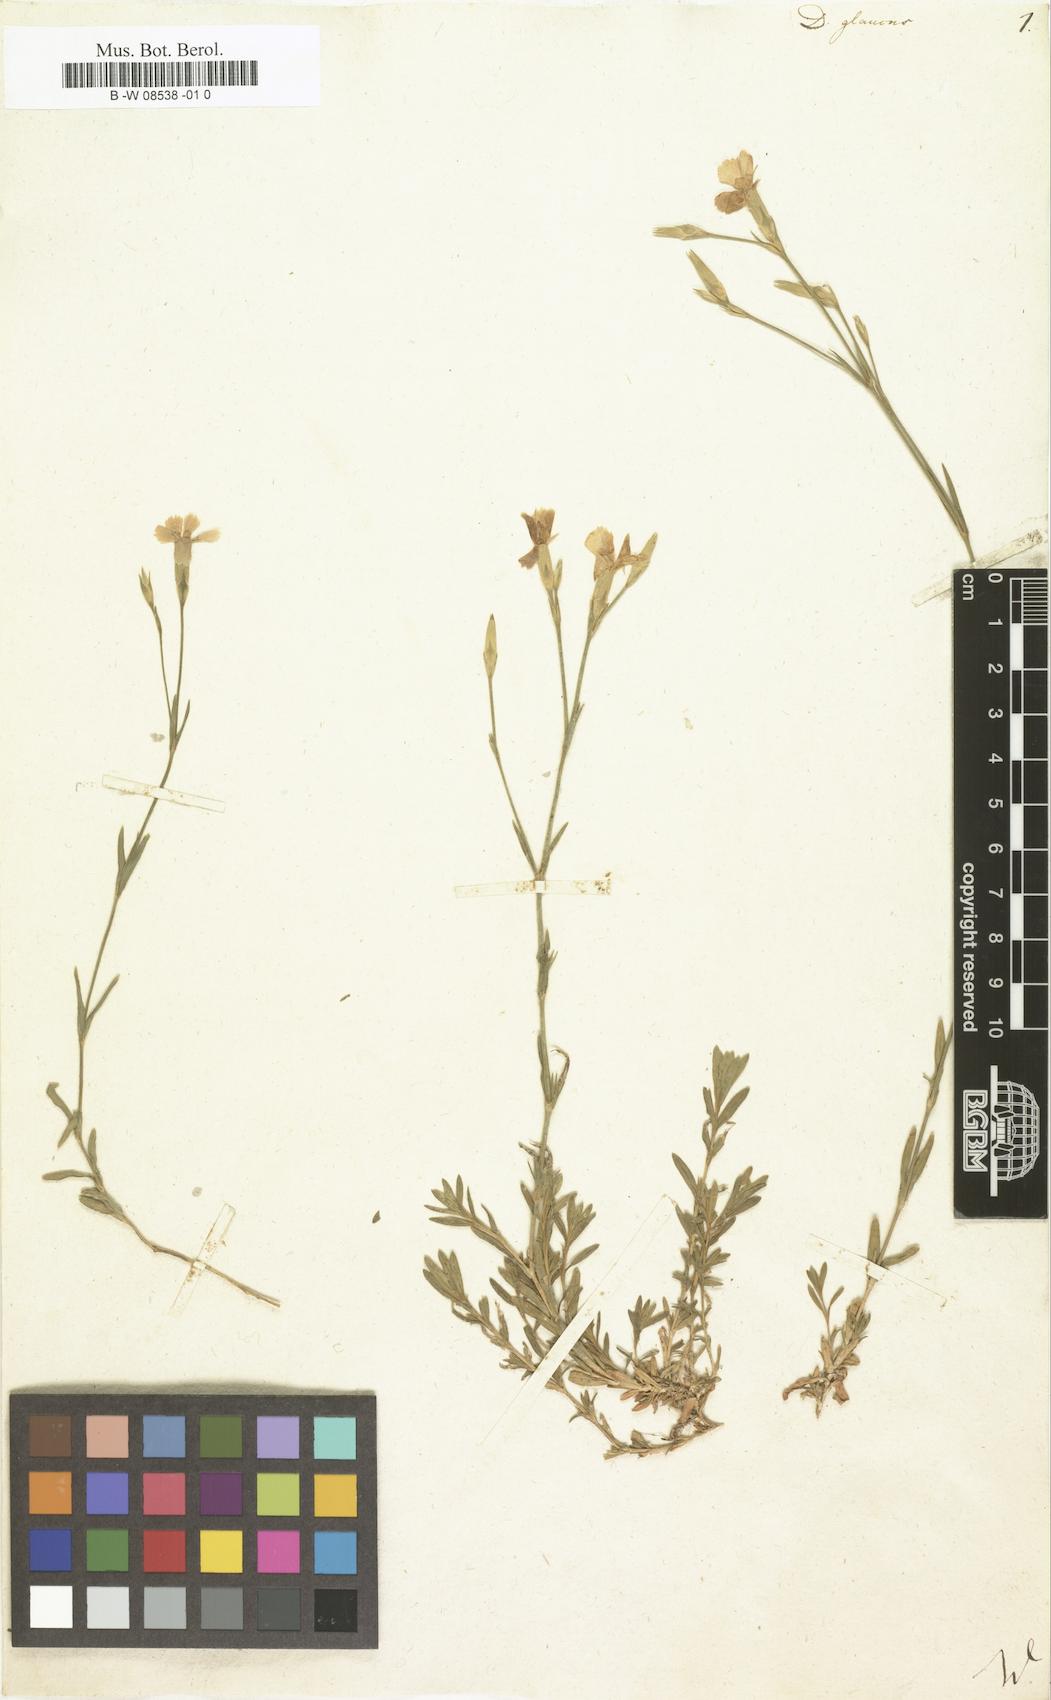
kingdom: Plantae
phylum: Tracheophyta
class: Magnoliopsida
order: Caryophyllales
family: Caryophyllaceae
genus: Dianthus
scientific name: Dianthus
